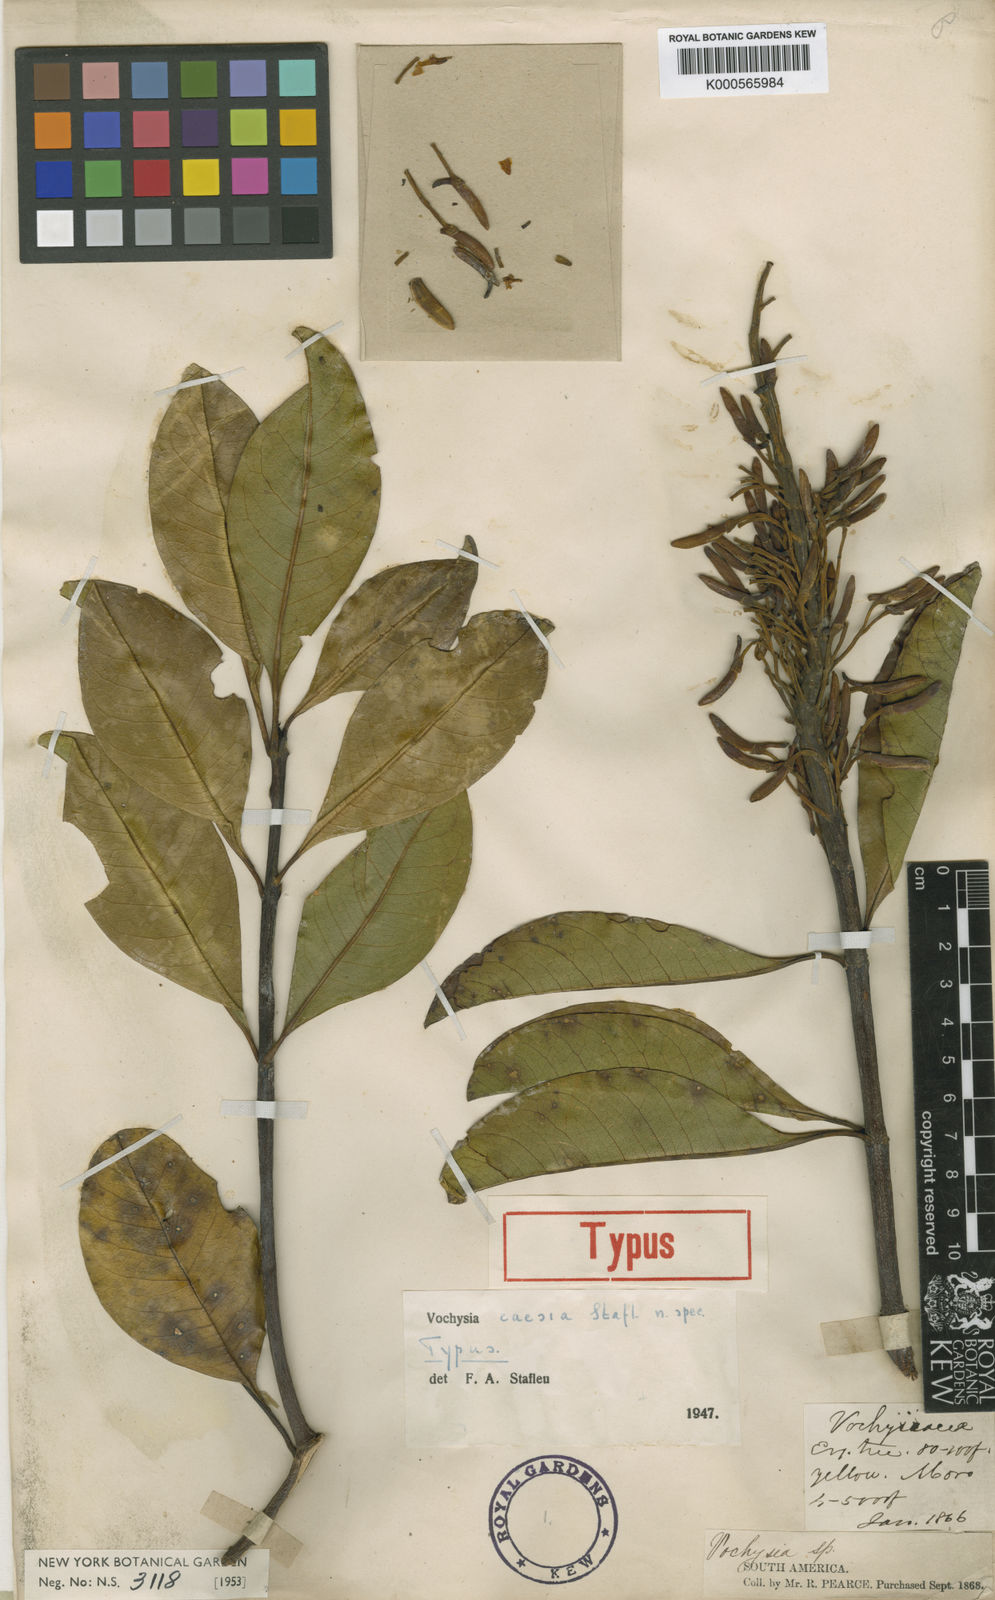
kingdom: Plantae
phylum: Tracheophyta
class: Magnoliopsida
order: Myrtales
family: Vochysiaceae
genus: Vochysia
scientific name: Vochysia caesia
